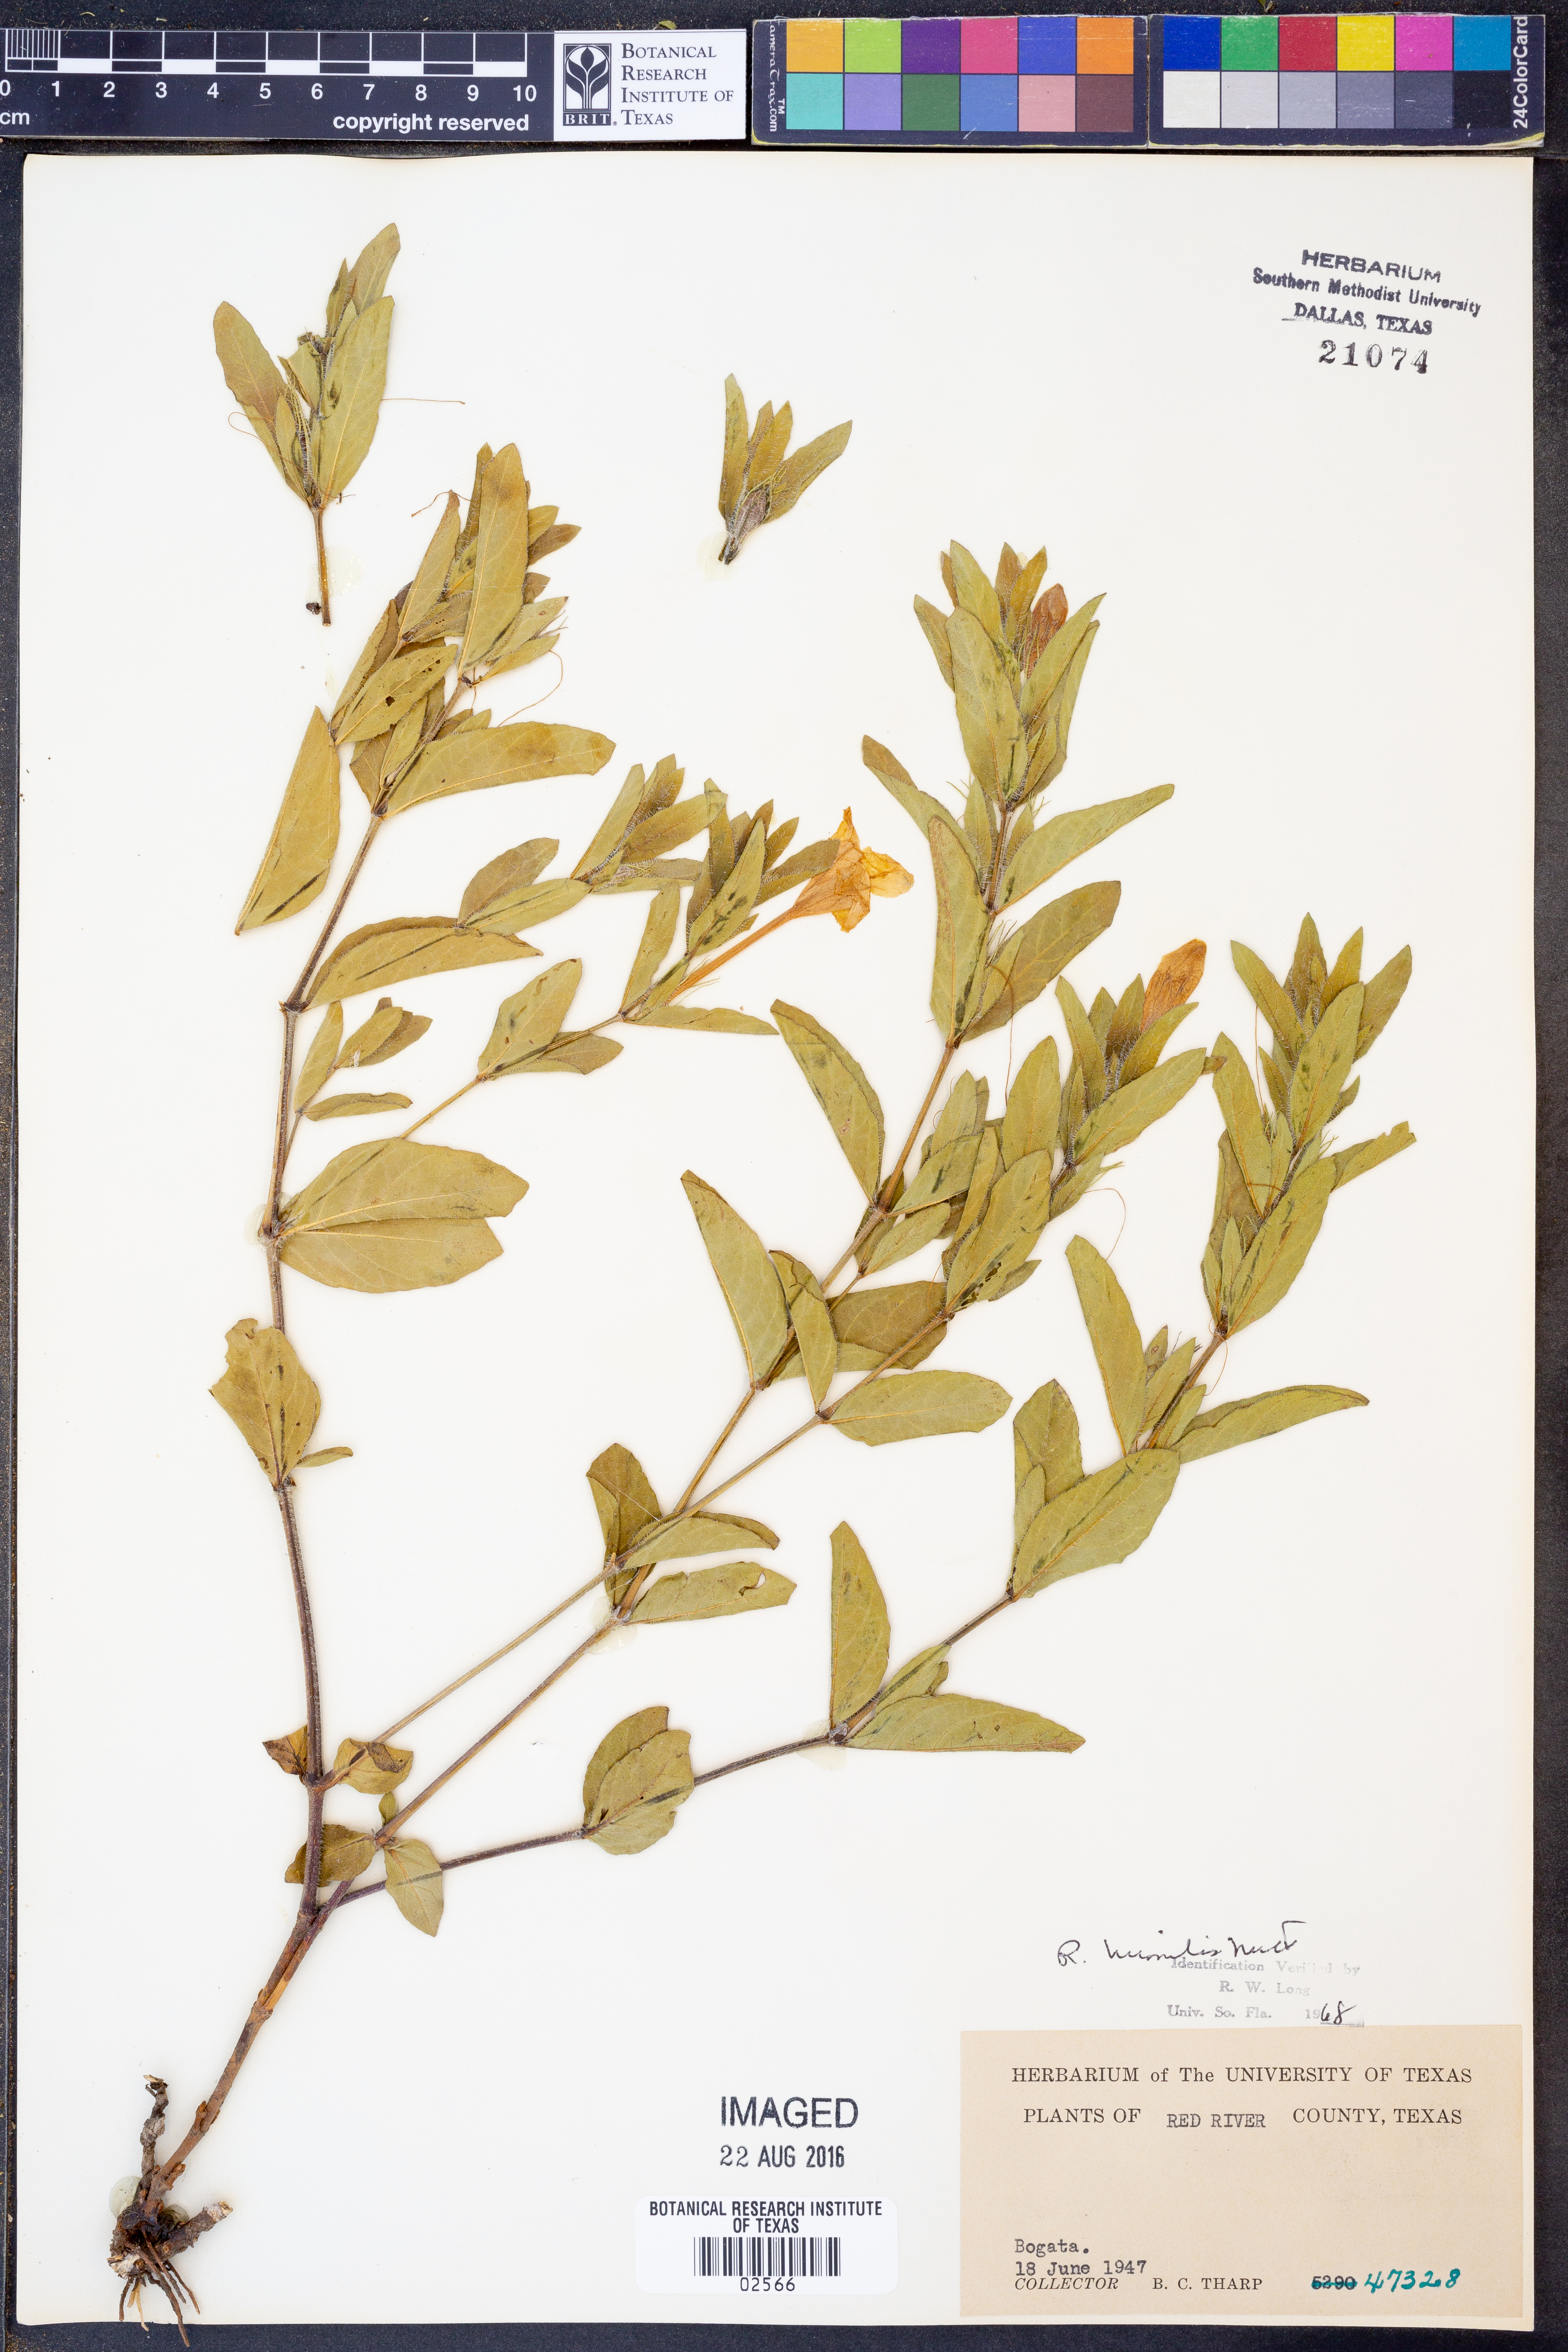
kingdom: Plantae
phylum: Tracheophyta
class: Magnoliopsida
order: Lamiales
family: Acanthaceae
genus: Ruellia
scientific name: Ruellia humilis
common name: Fringe-leaf ruellia
